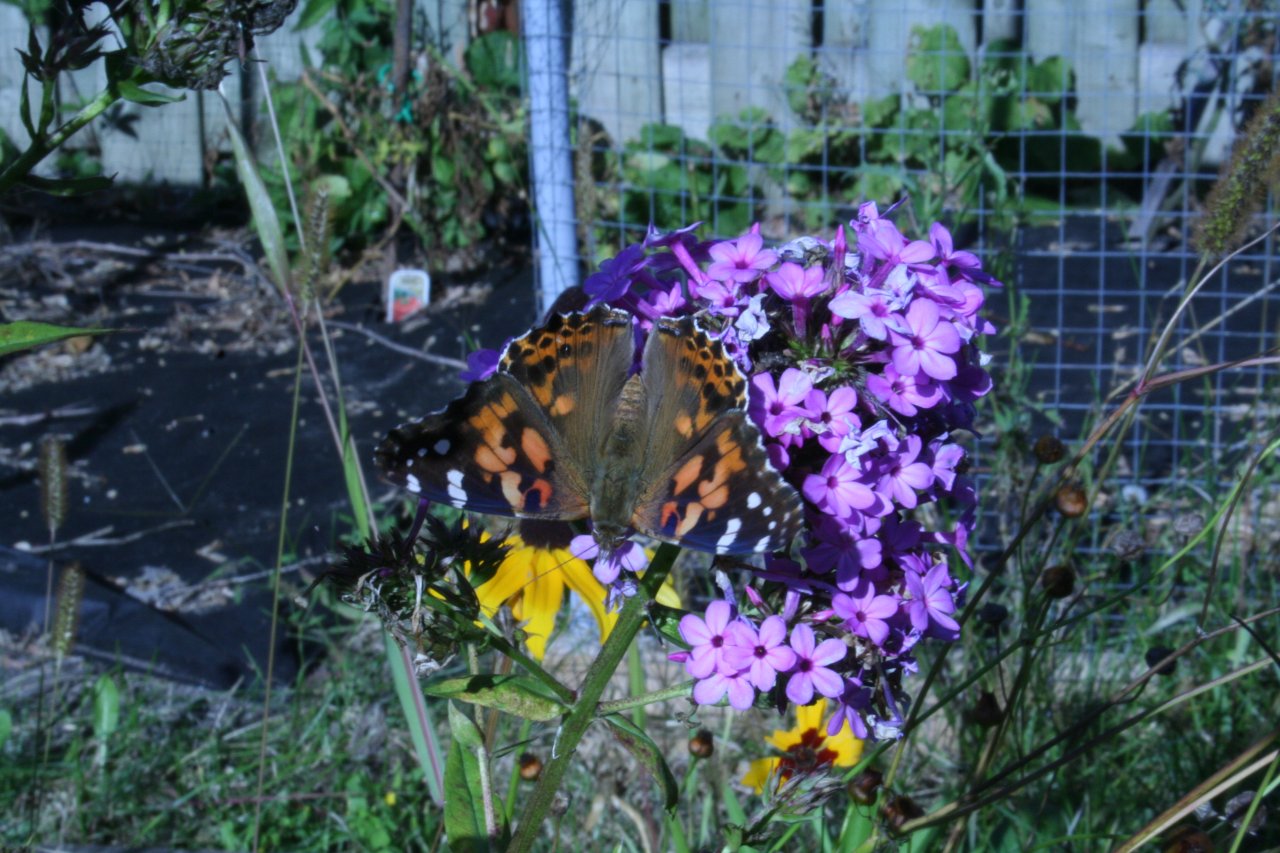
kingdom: Animalia
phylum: Arthropoda
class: Insecta
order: Lepidoptera
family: Nymphalidae
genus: Vanessa
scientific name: Vanessa cardui
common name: Painted Lady
